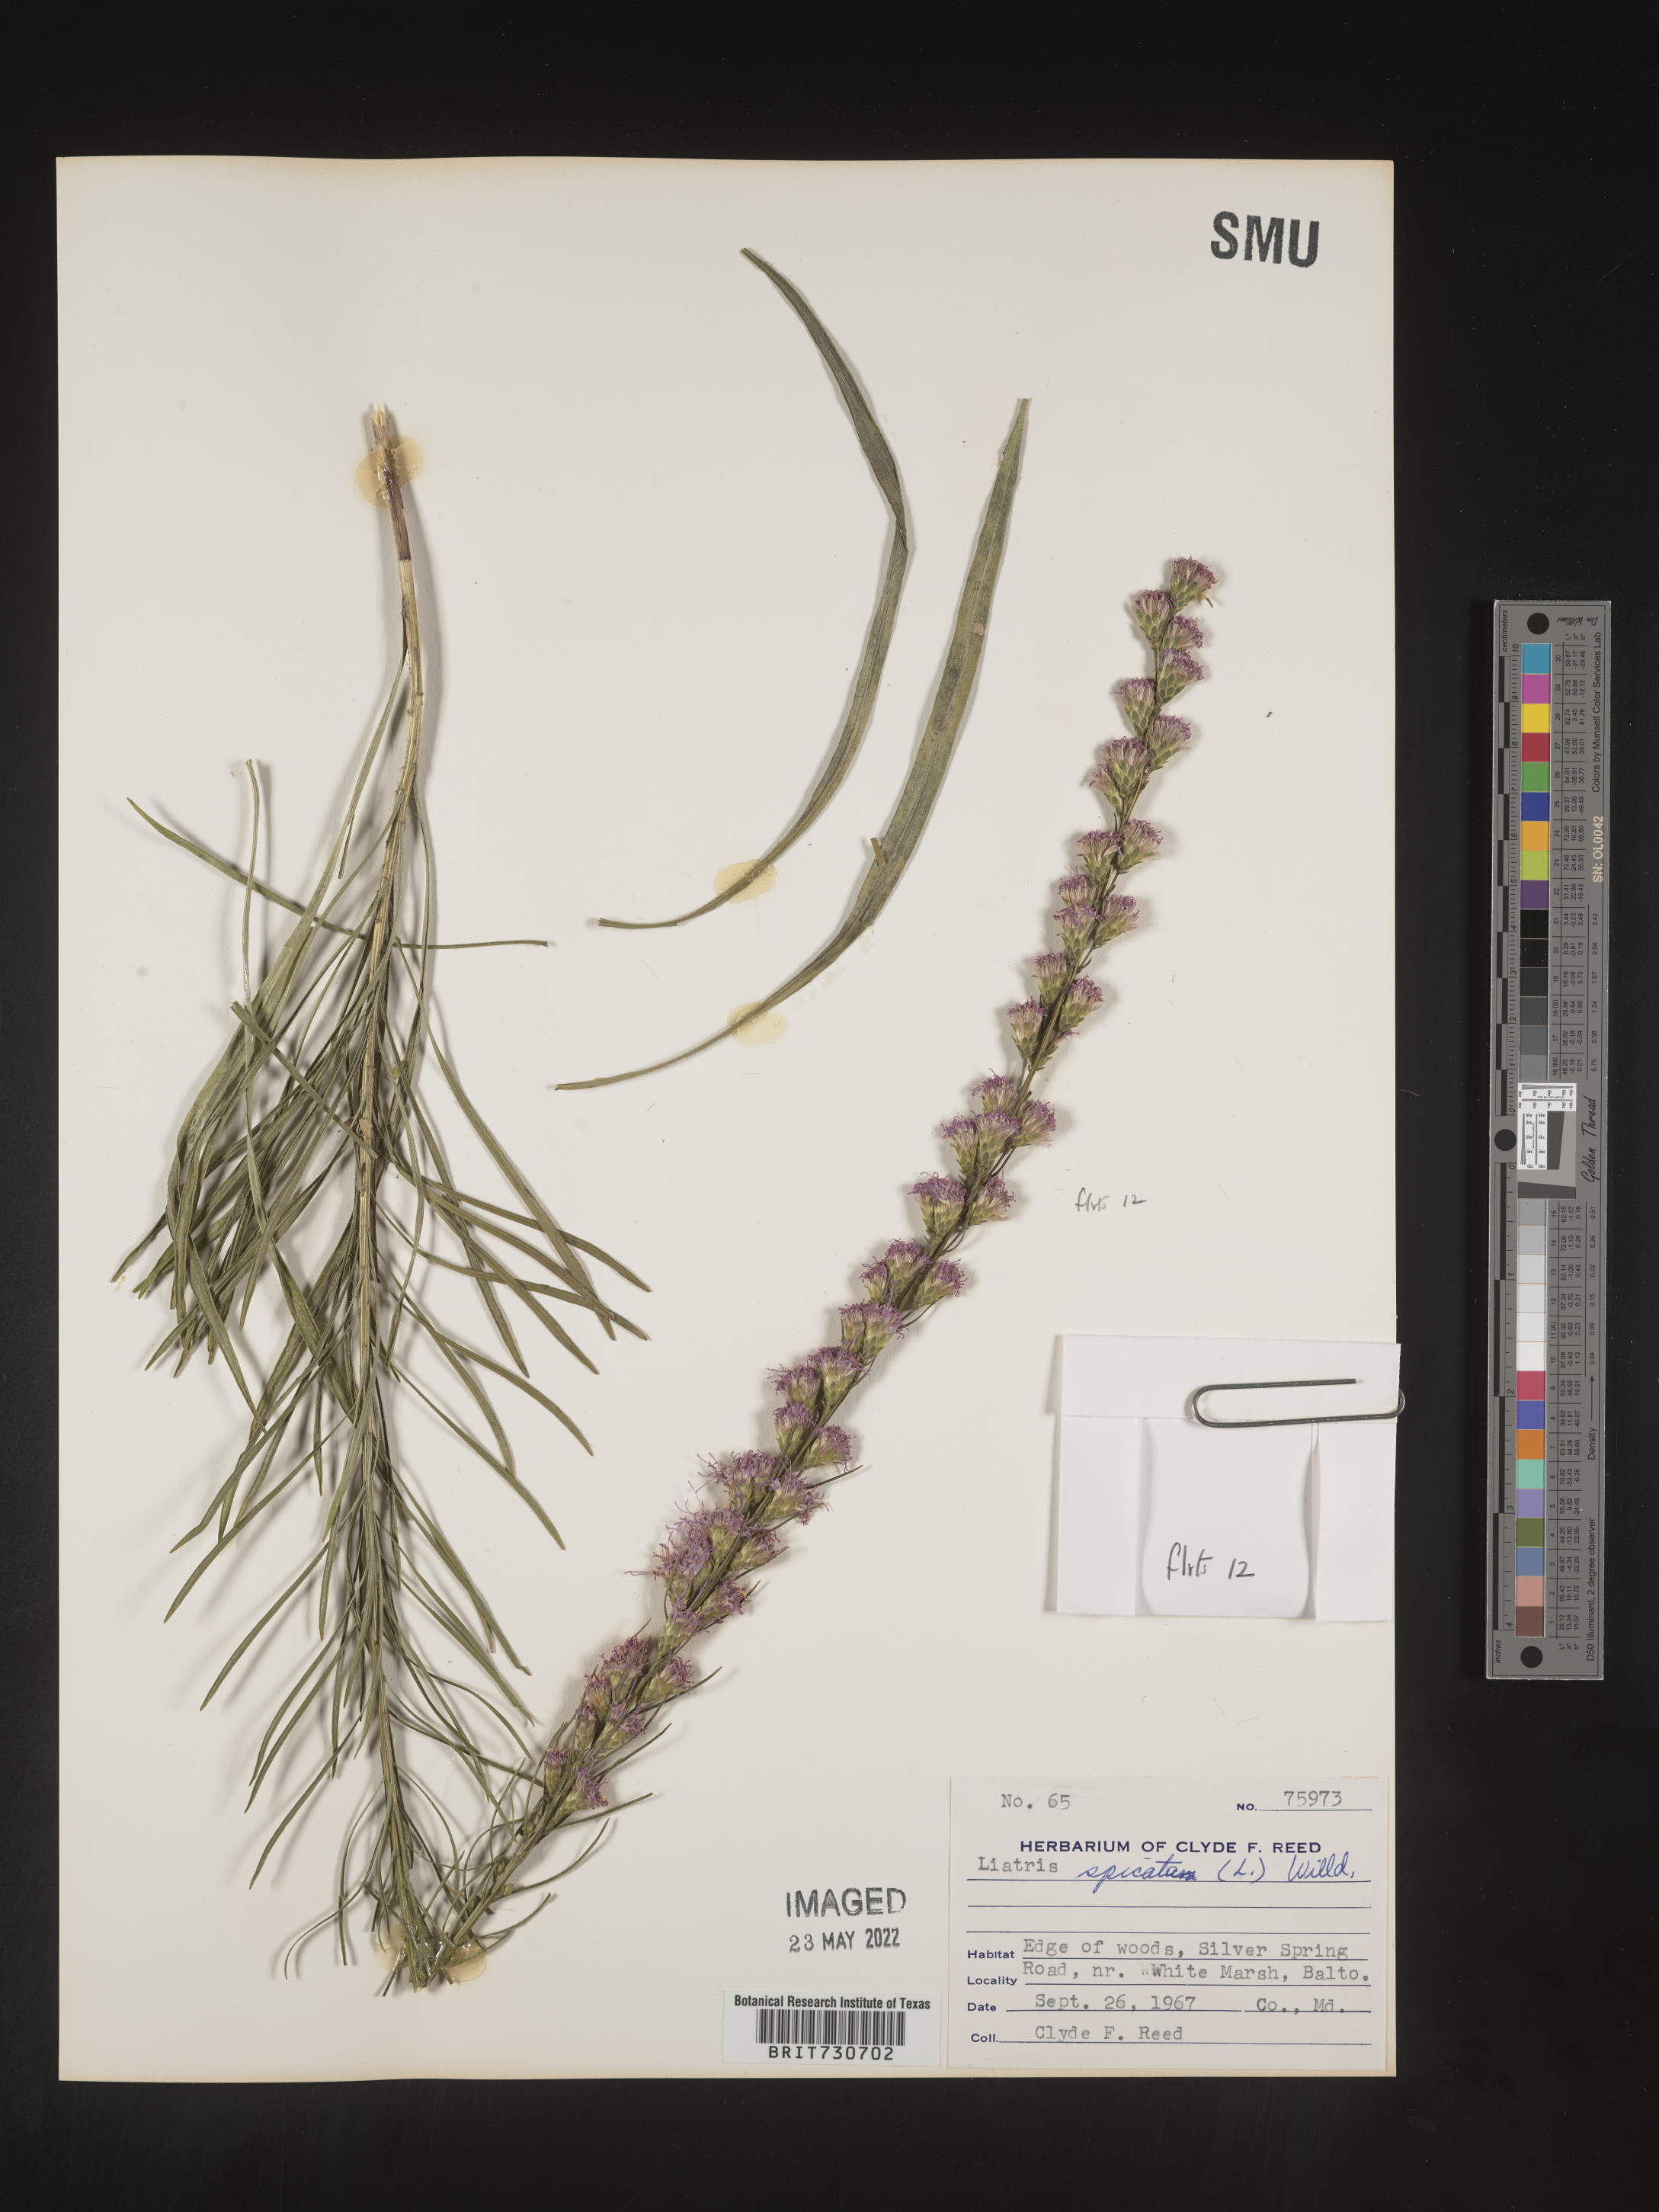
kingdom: Plantae
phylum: Tracheophyta
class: Magnoliopsida
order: Asterales
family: Asteraceae
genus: Liatris
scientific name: Liatris pilosa
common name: Grass-leaf gayfeather
